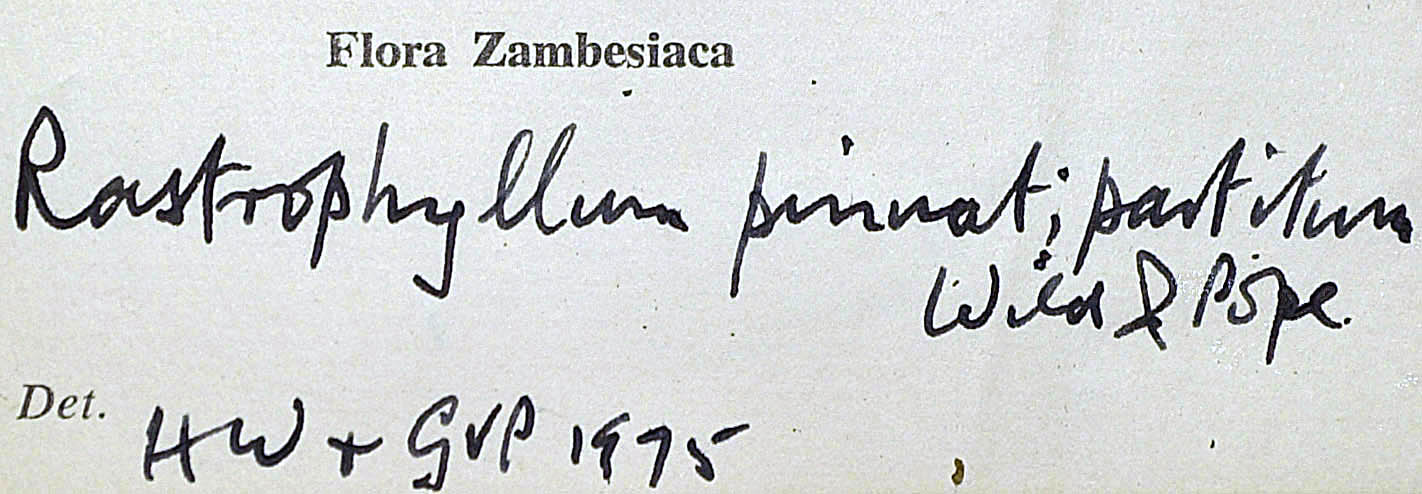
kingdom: Plantae
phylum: Tracheophyta
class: Magnoliopsida
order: Asterales
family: Asteraceae
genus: Rastrophyllum
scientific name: Rastrophyllum pinnatipartitum
